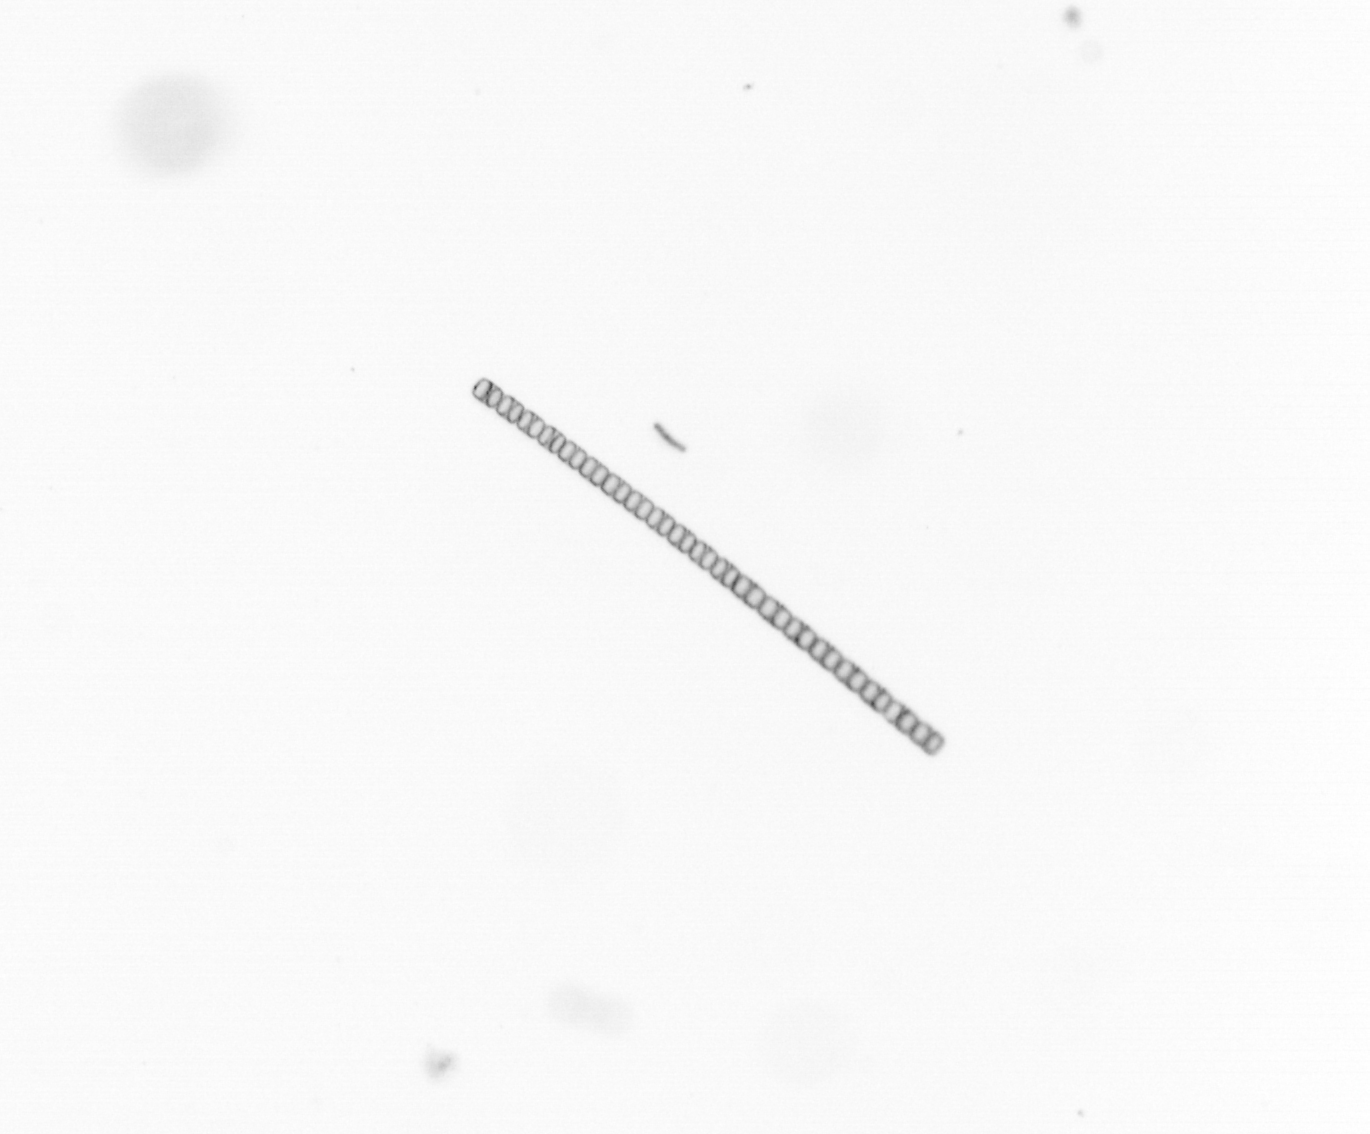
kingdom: Chromista
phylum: Ochrophyta
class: Bacillariophyceae
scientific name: Bacillariophyceae
